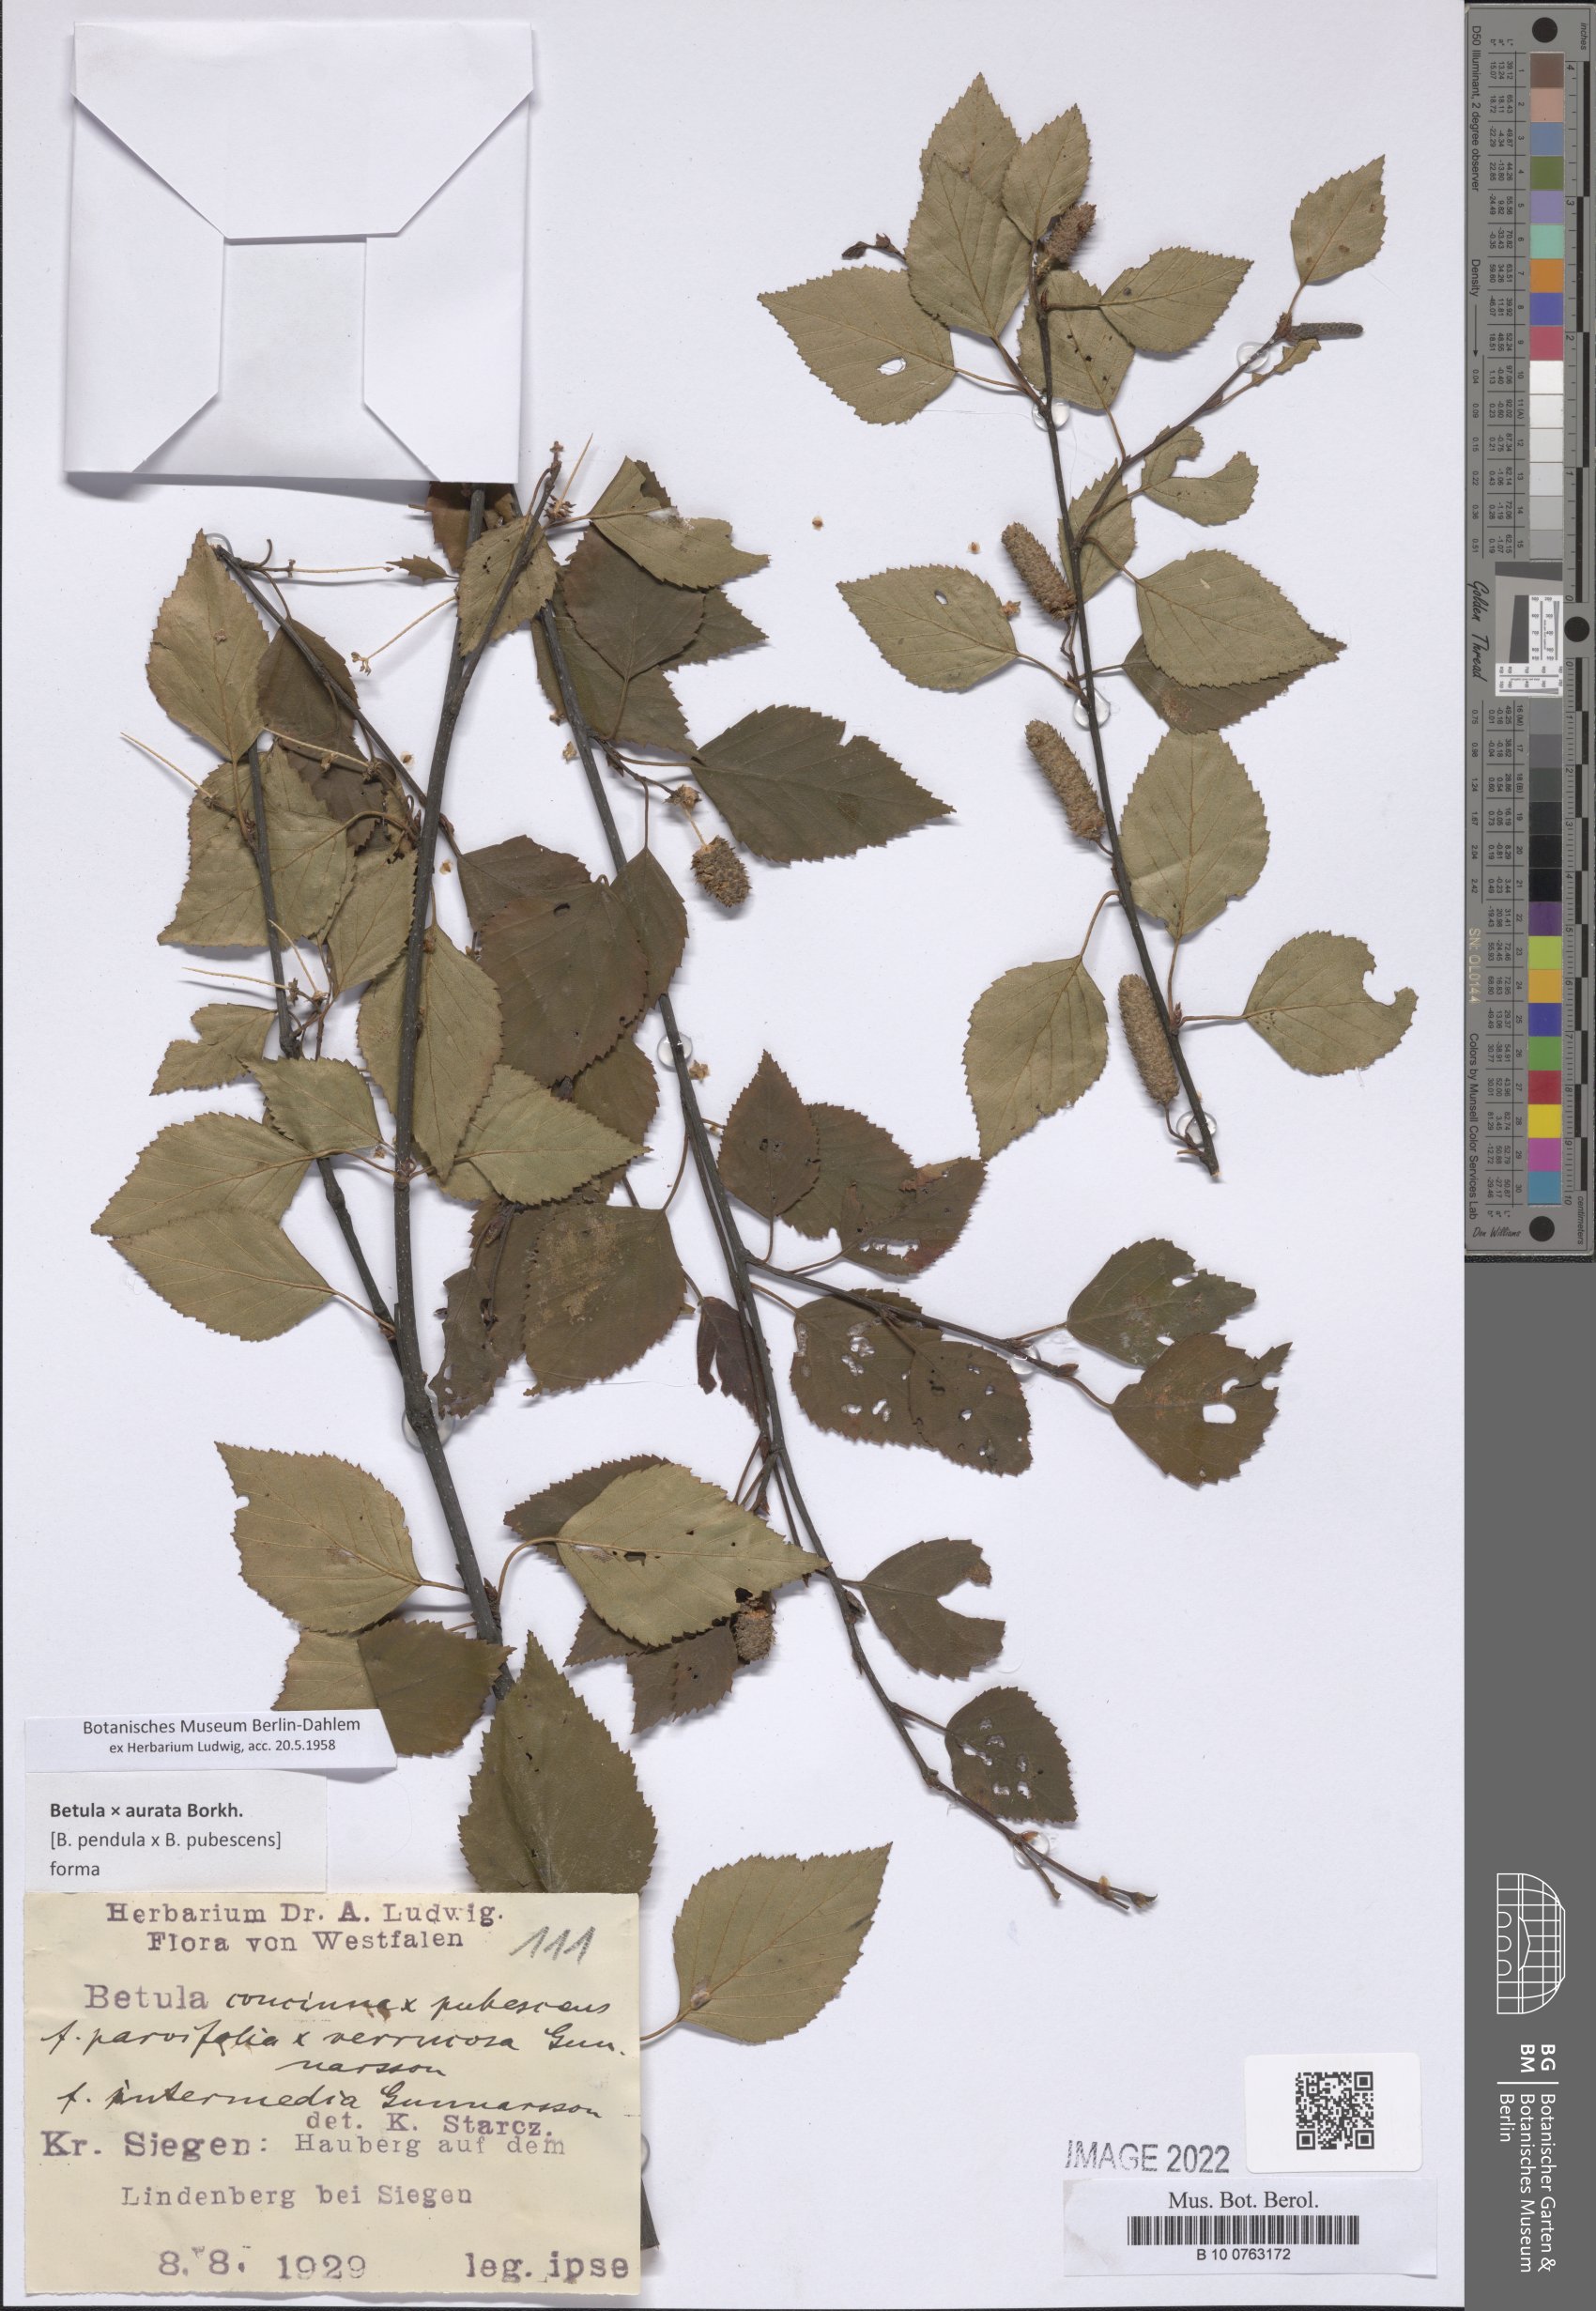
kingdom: Plantae
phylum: Tracheophyta
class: Magnoliopsida
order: Myrtales
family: Melastomataceae
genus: Brachyotum
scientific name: Brachyotum microdon
